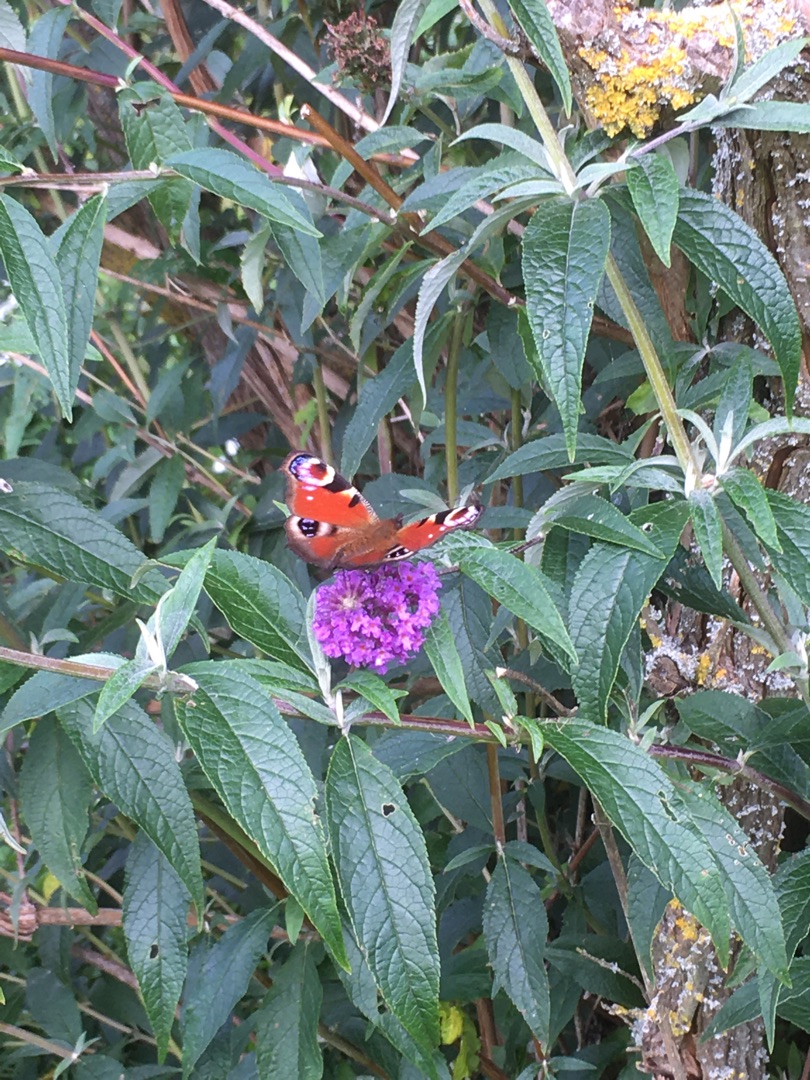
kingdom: Animalia
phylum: Arthropoda
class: Insecta
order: Lepidoptera
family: Nymphalidae
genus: Aglais
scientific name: Aglais io
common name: Dagpåfugleøje
